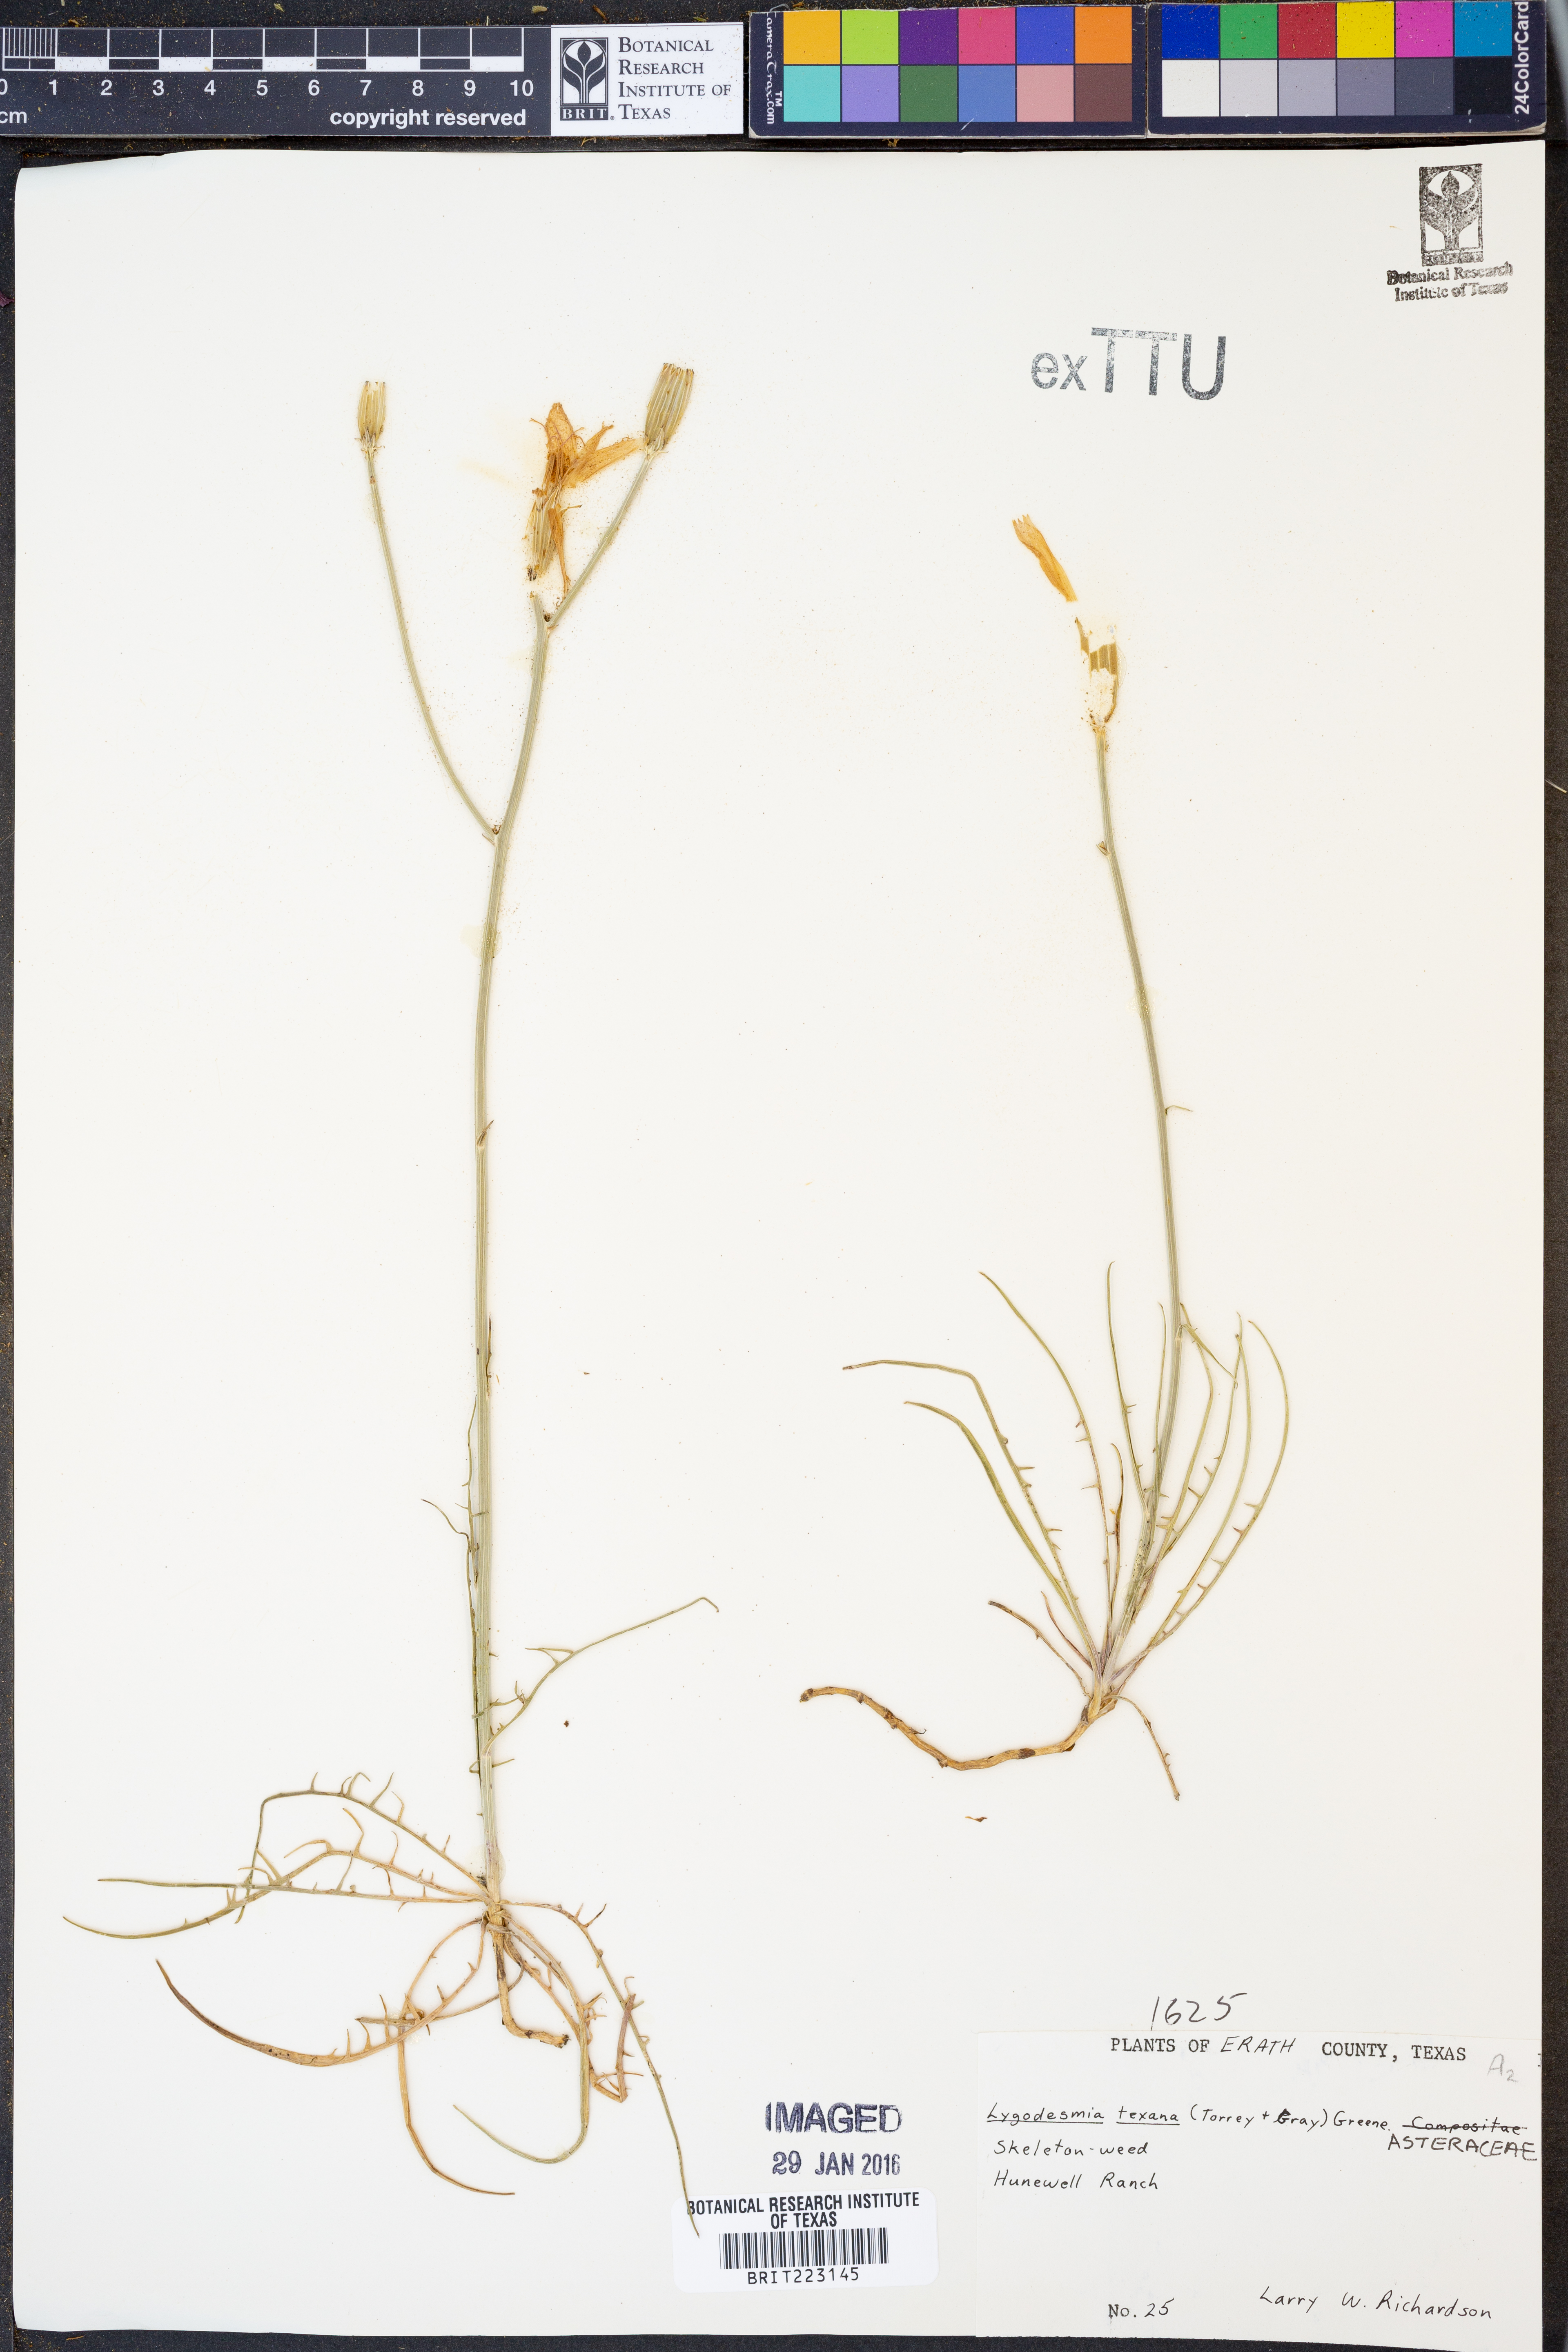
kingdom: Plantae
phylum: Tracheophyta
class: Magnoliopsida
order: Asterales
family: Asteraceae
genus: Lygodesmia
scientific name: Lygodesmia texana
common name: Texas skeleton-plant
